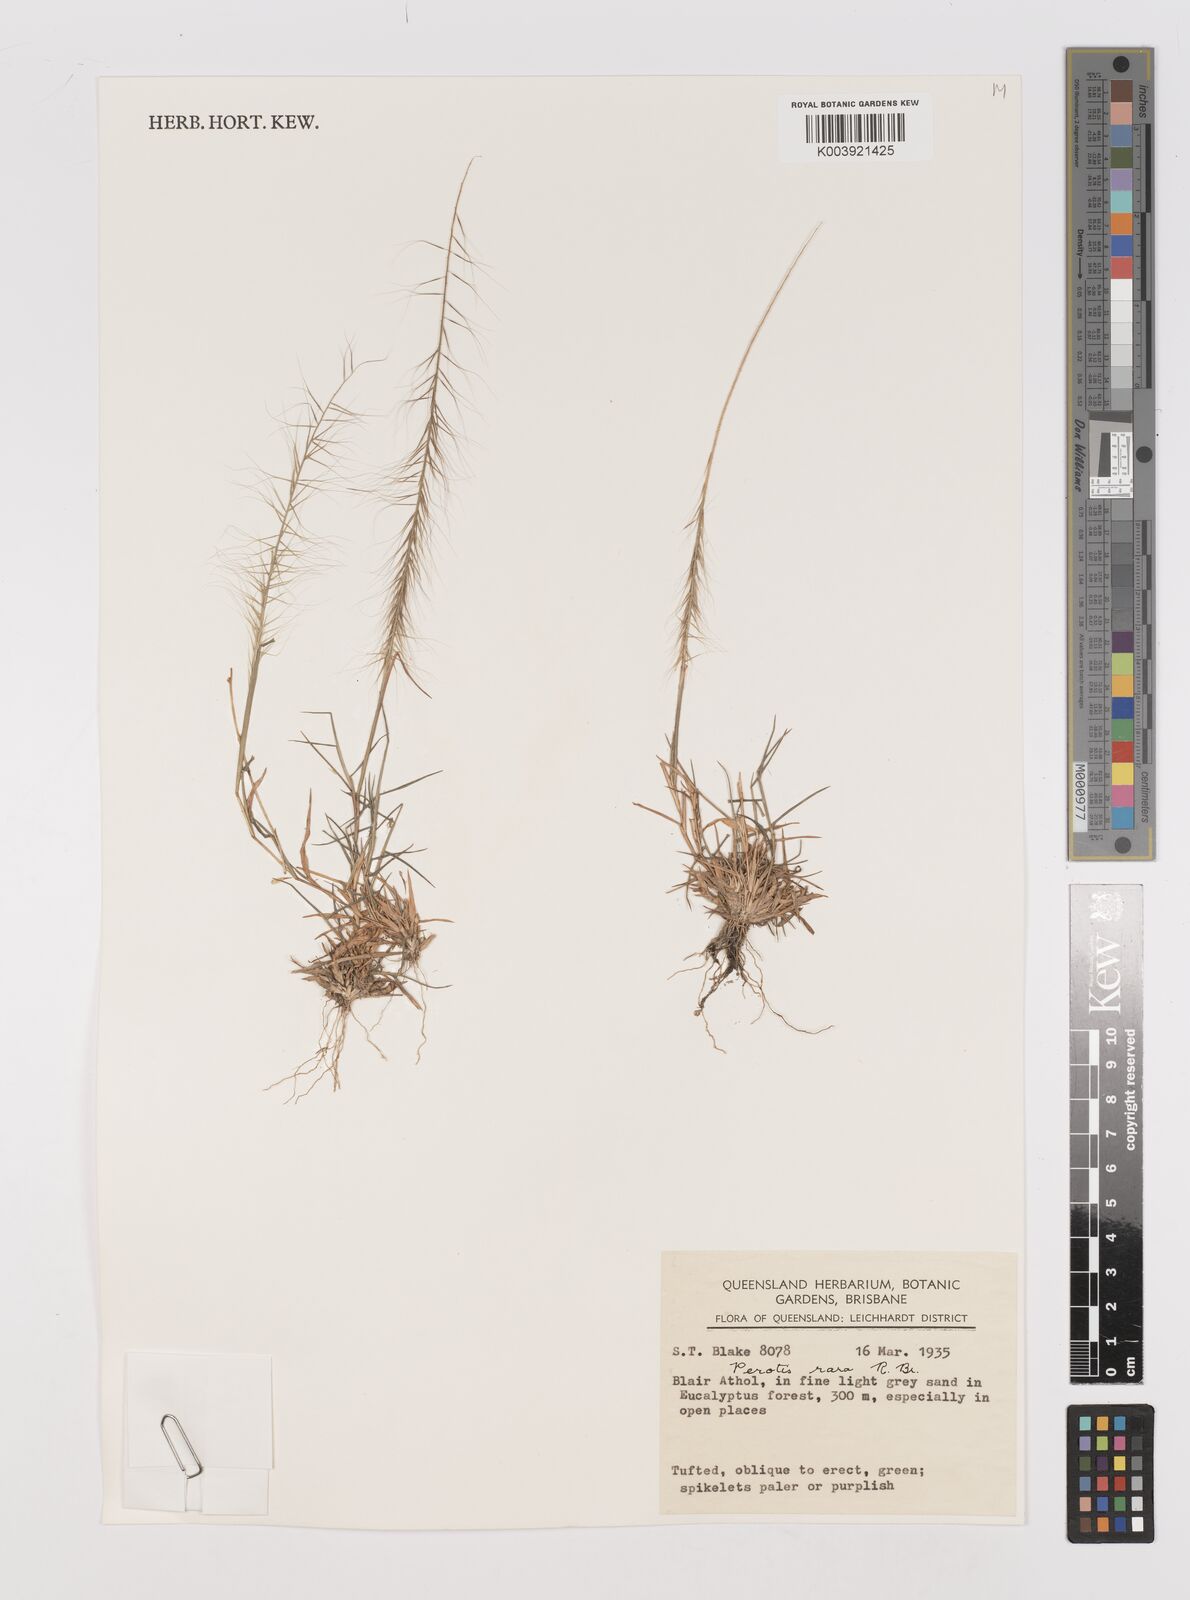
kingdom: Plantae
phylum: Tracheophyta
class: Liliopsida
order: Poales
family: Poaceae
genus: Perotis
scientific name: Perotis rara
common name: Comet grass
